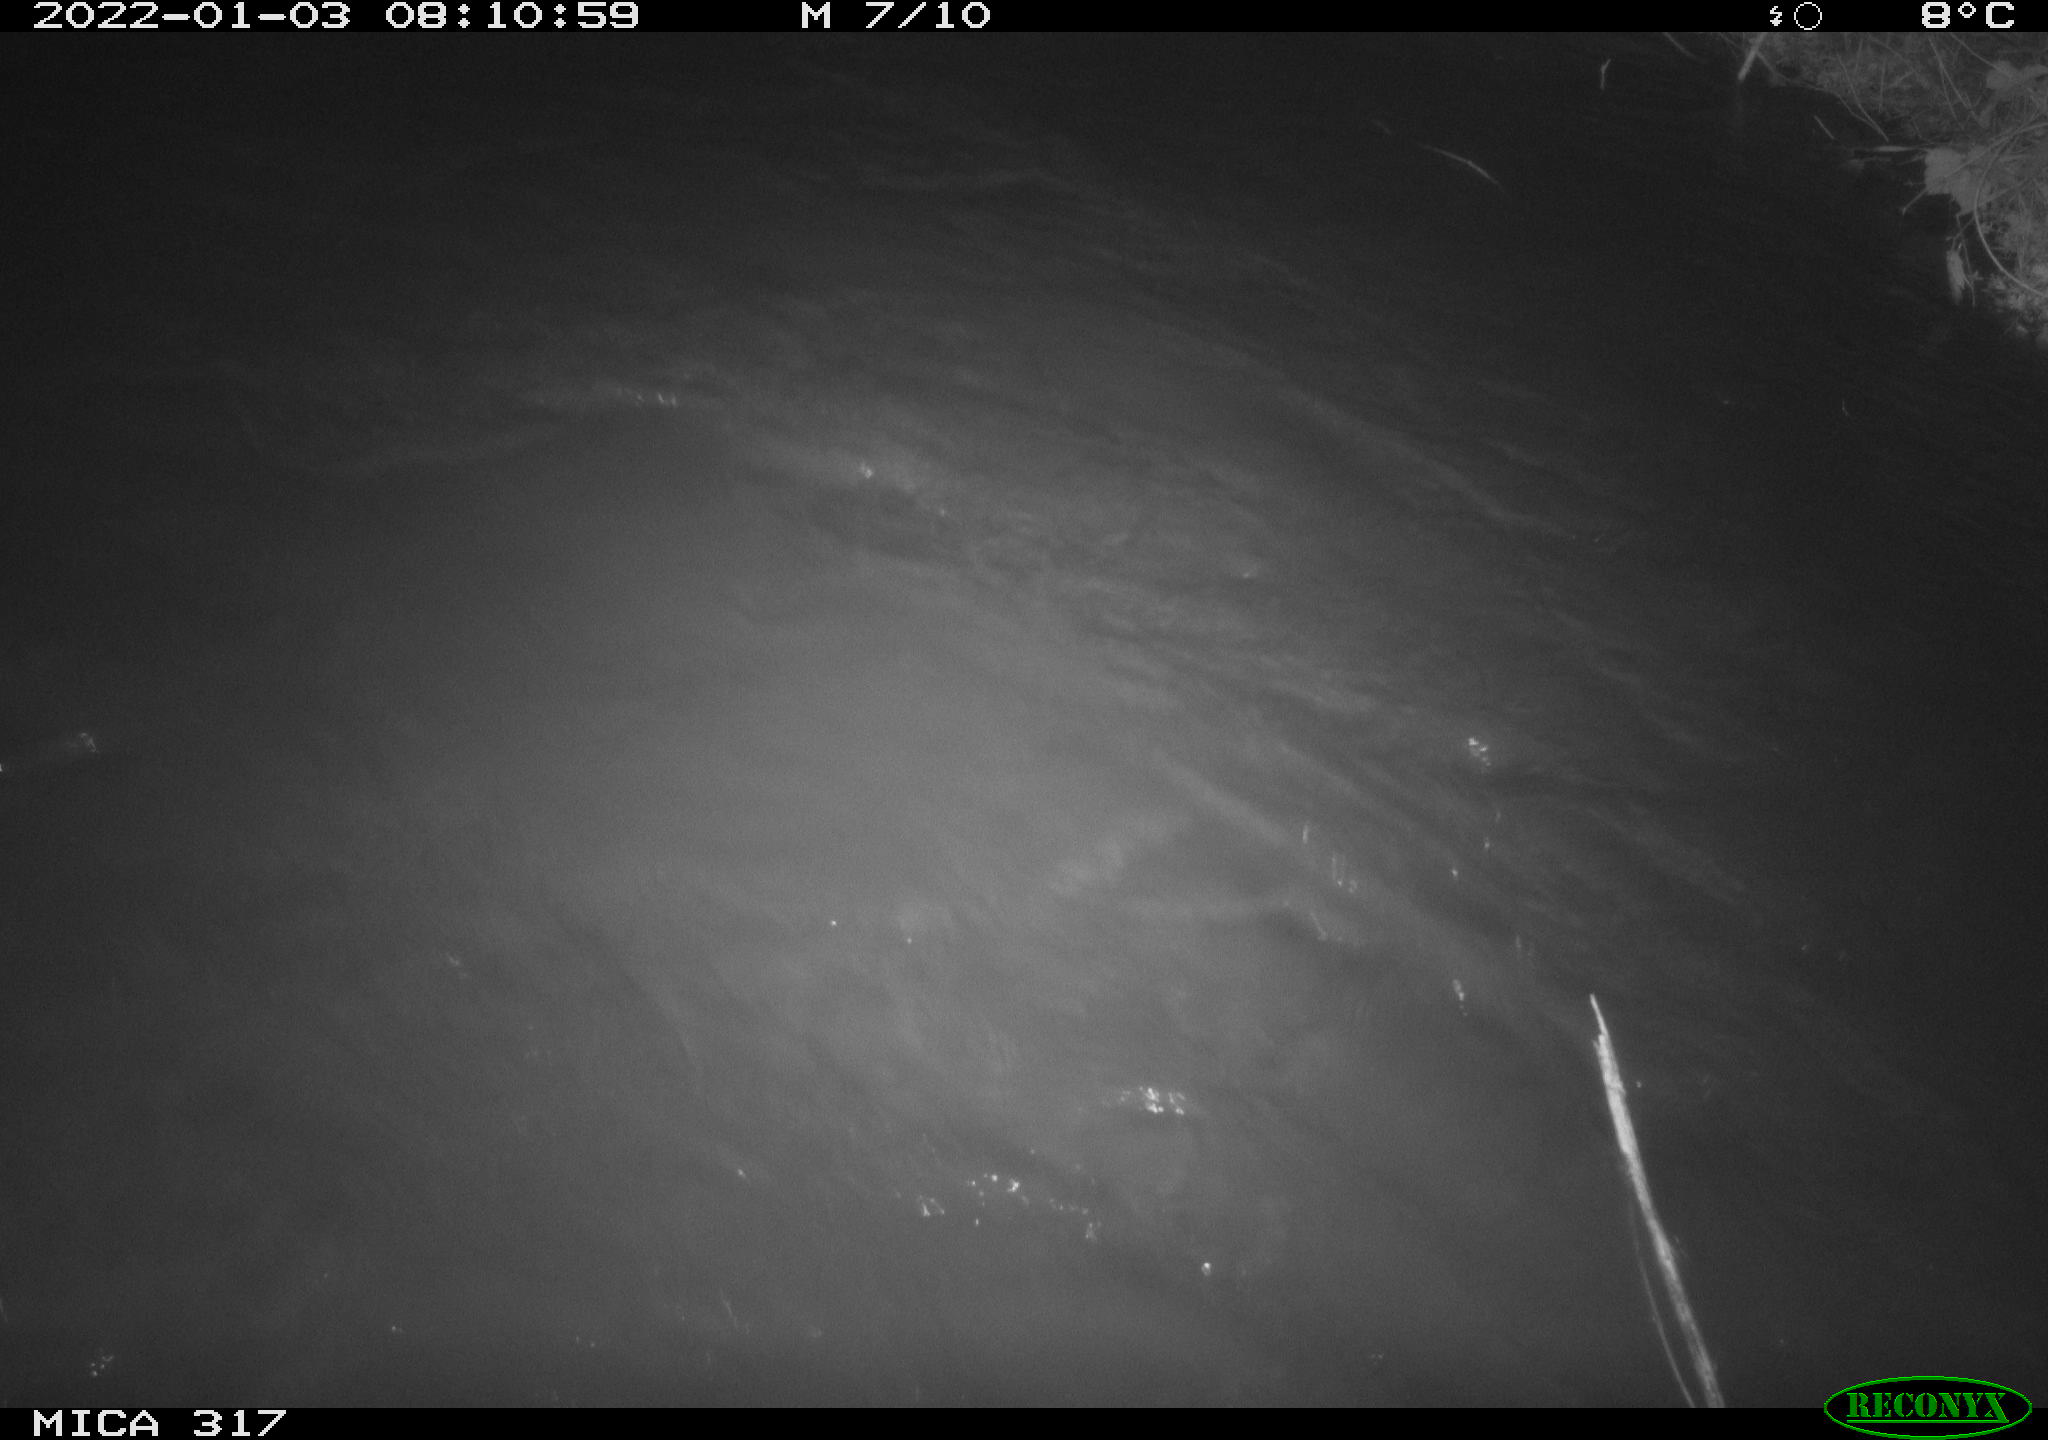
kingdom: Animalia
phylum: Chordata
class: Aves
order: Gruiformes
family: Rallidae
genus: Gallinula
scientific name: Gallinula chloropus
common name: Common moorhen
